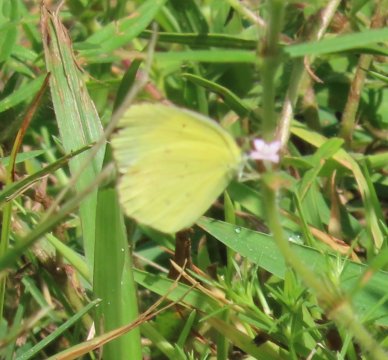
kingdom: Animalia
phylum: Arthropoda
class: Insecta
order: Lepidoptera
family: Pieridae
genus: Pyrisitia
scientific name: Pyrisitia lisa
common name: Little Yellow
